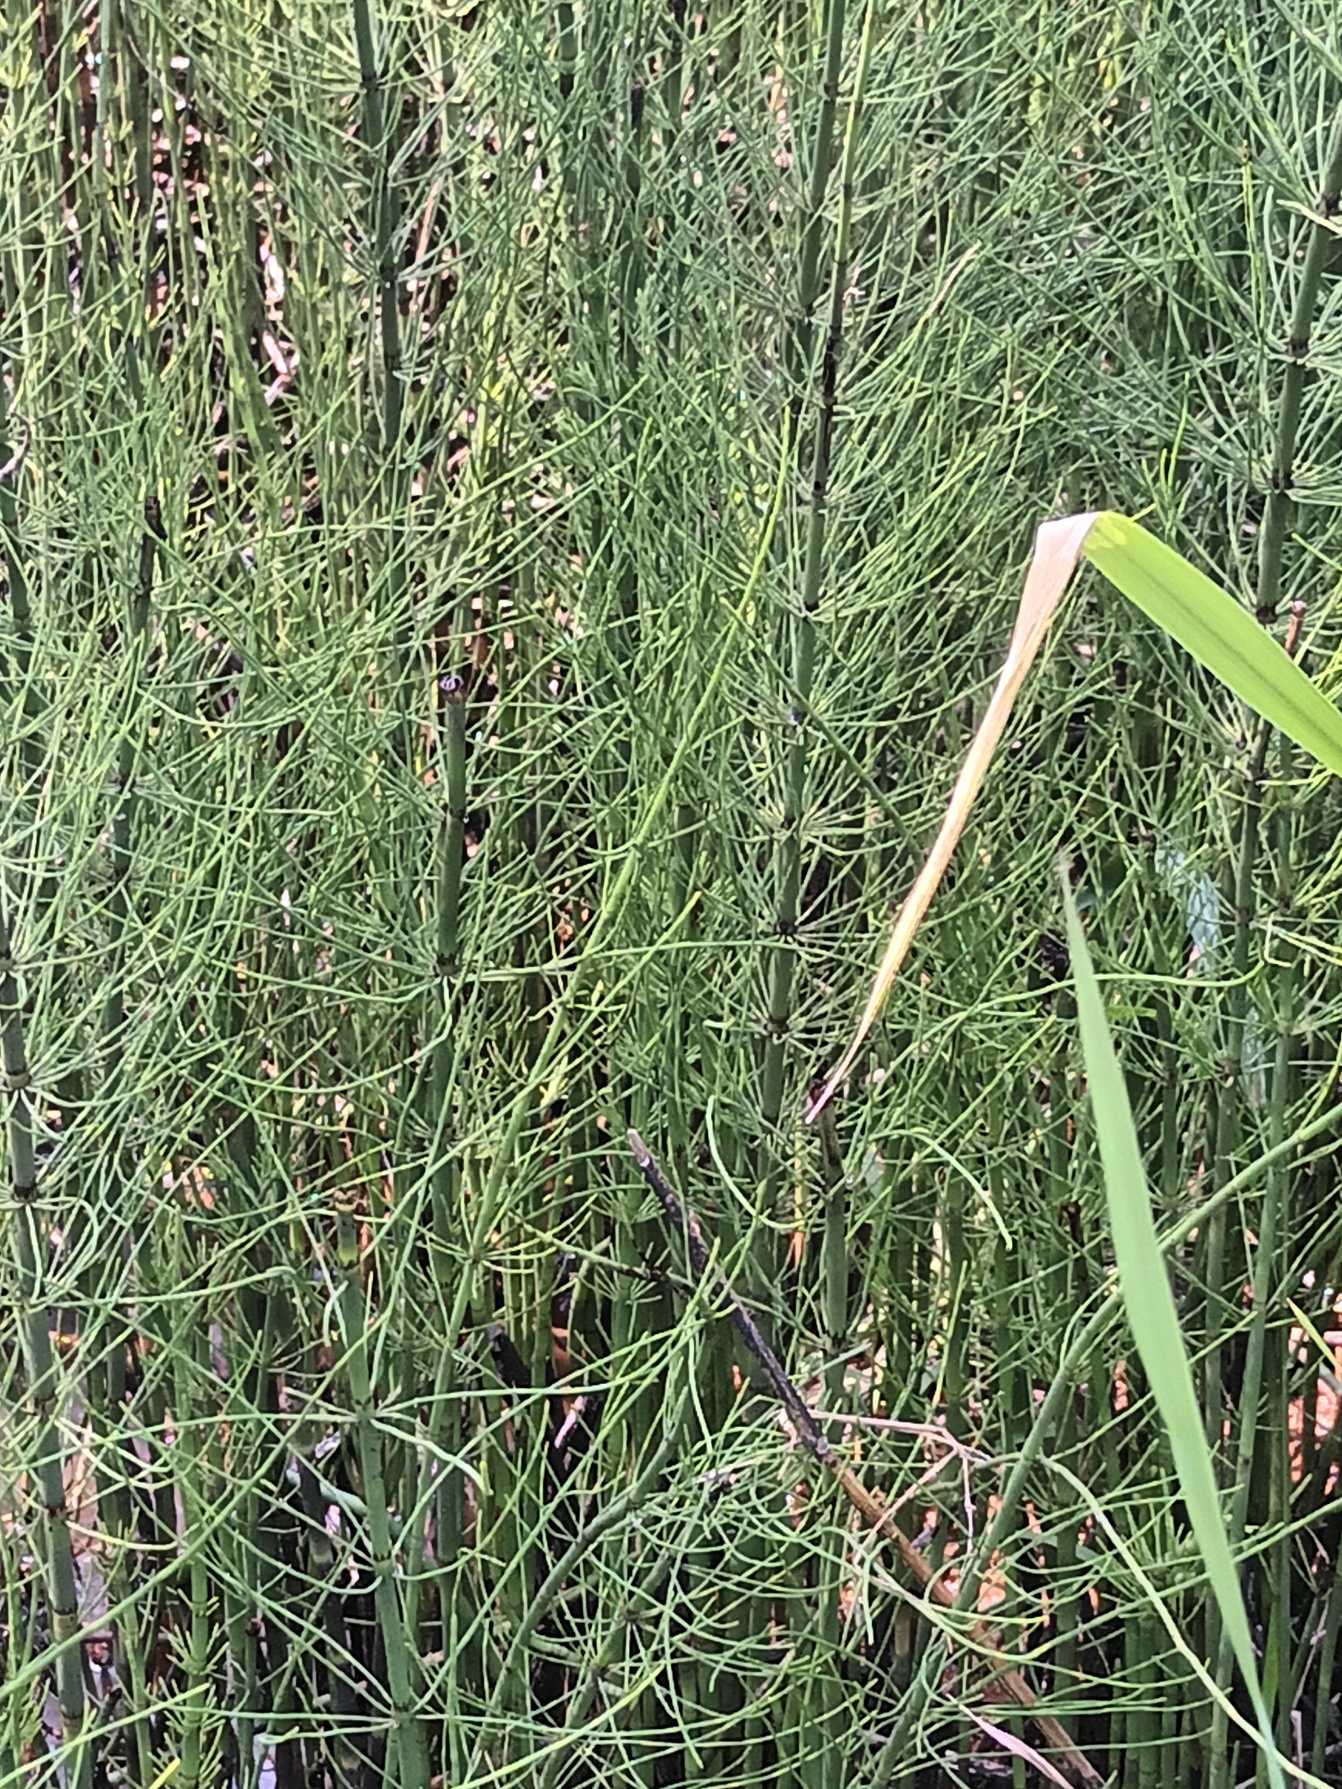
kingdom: Plantae
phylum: Tracheophyta
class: Polypodiopsida
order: Equisetales
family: Equisetaceae
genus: Equisetum
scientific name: Equisetum fluviatile
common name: Dynd-padderok
